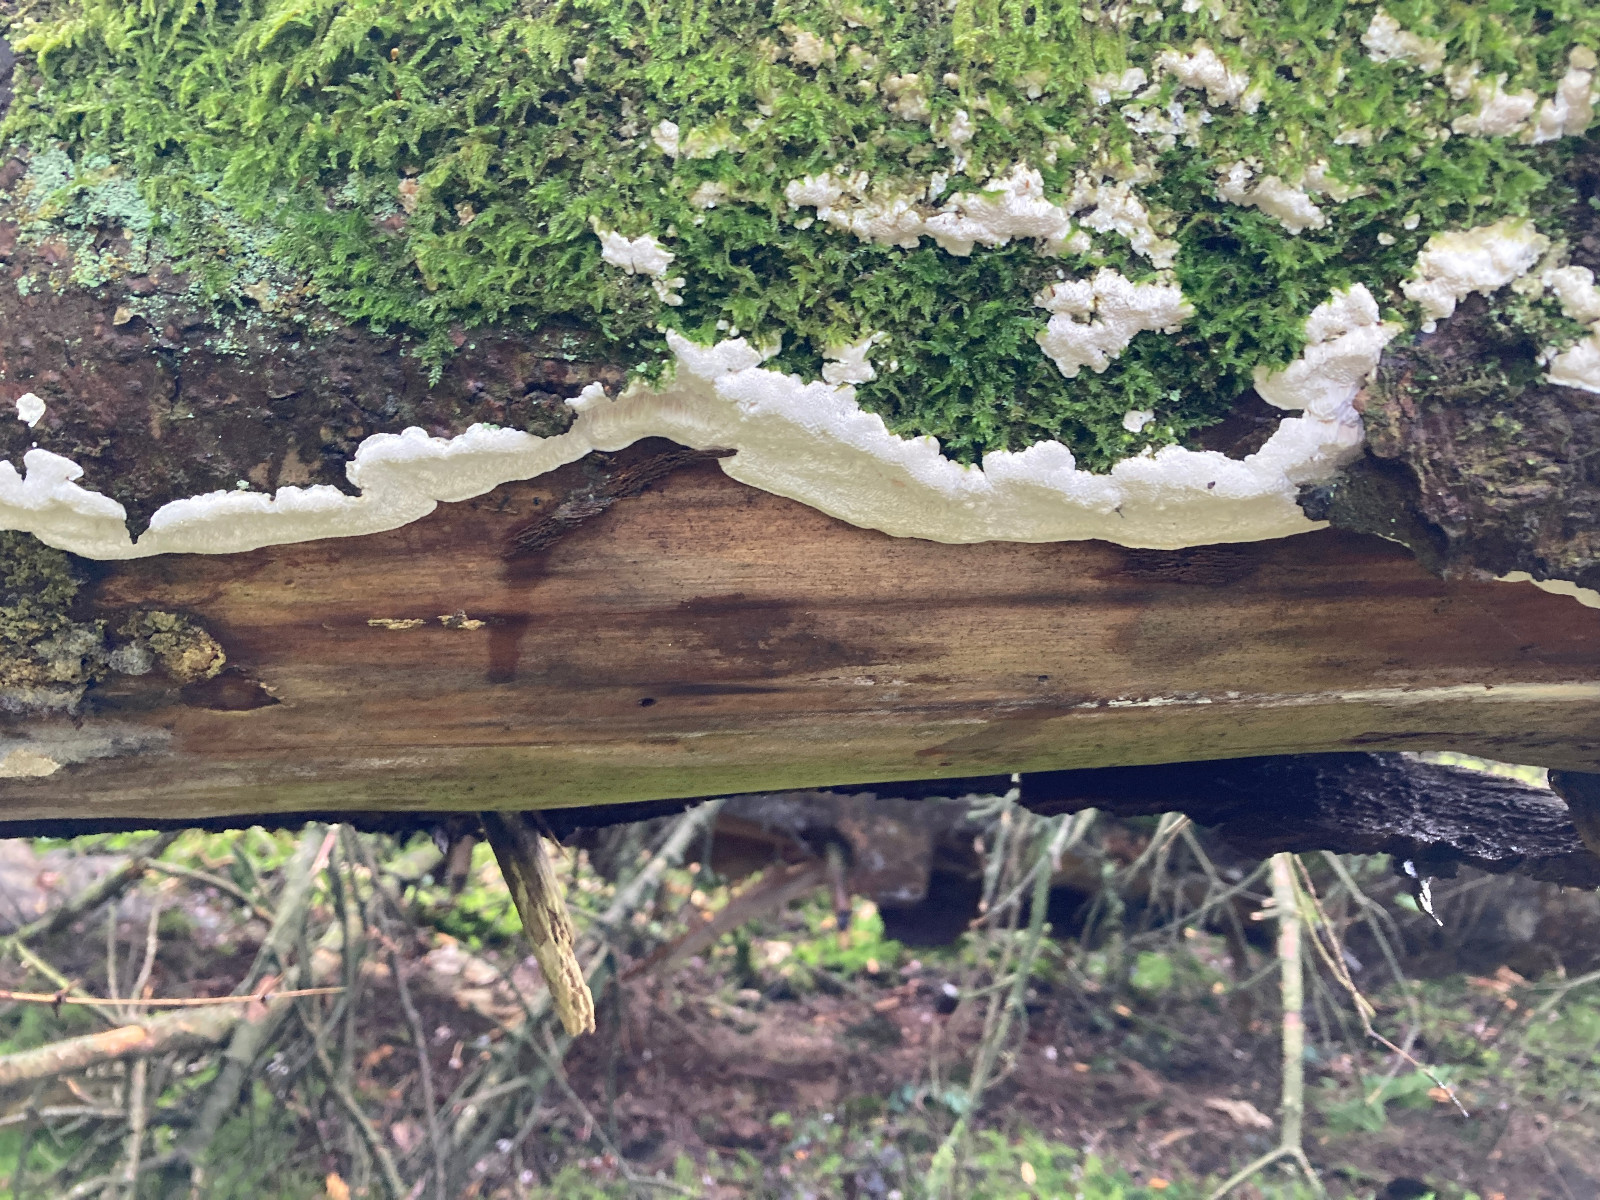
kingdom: Fungi
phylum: Basidiomycota
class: Agaricomycetes
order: Polyporales
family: Fomitopsidaceae
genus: Neoantrodia
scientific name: Neoantrodia serialis
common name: række-sejporesvamp
